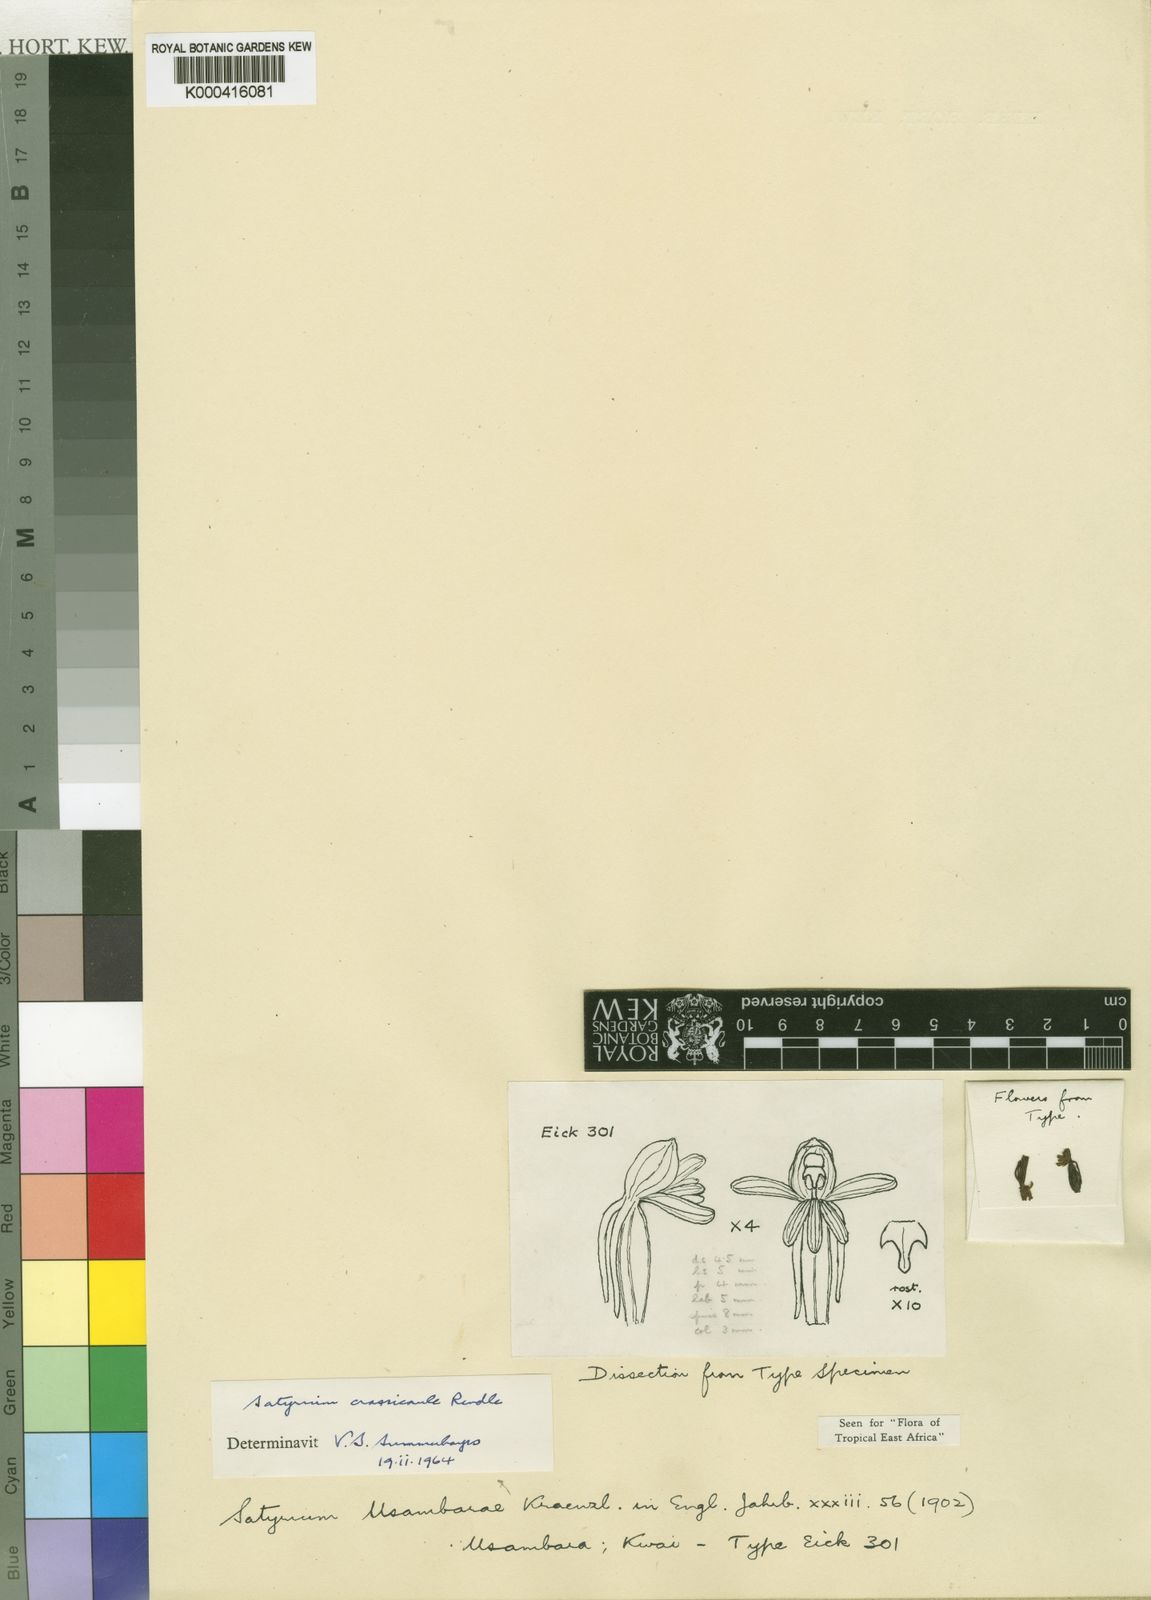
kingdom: Plantae
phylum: Tracheophyta
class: Liliopsida
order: Asparagales
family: Orchidaceae
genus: Satyrium
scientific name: Satyrium crassicaule
